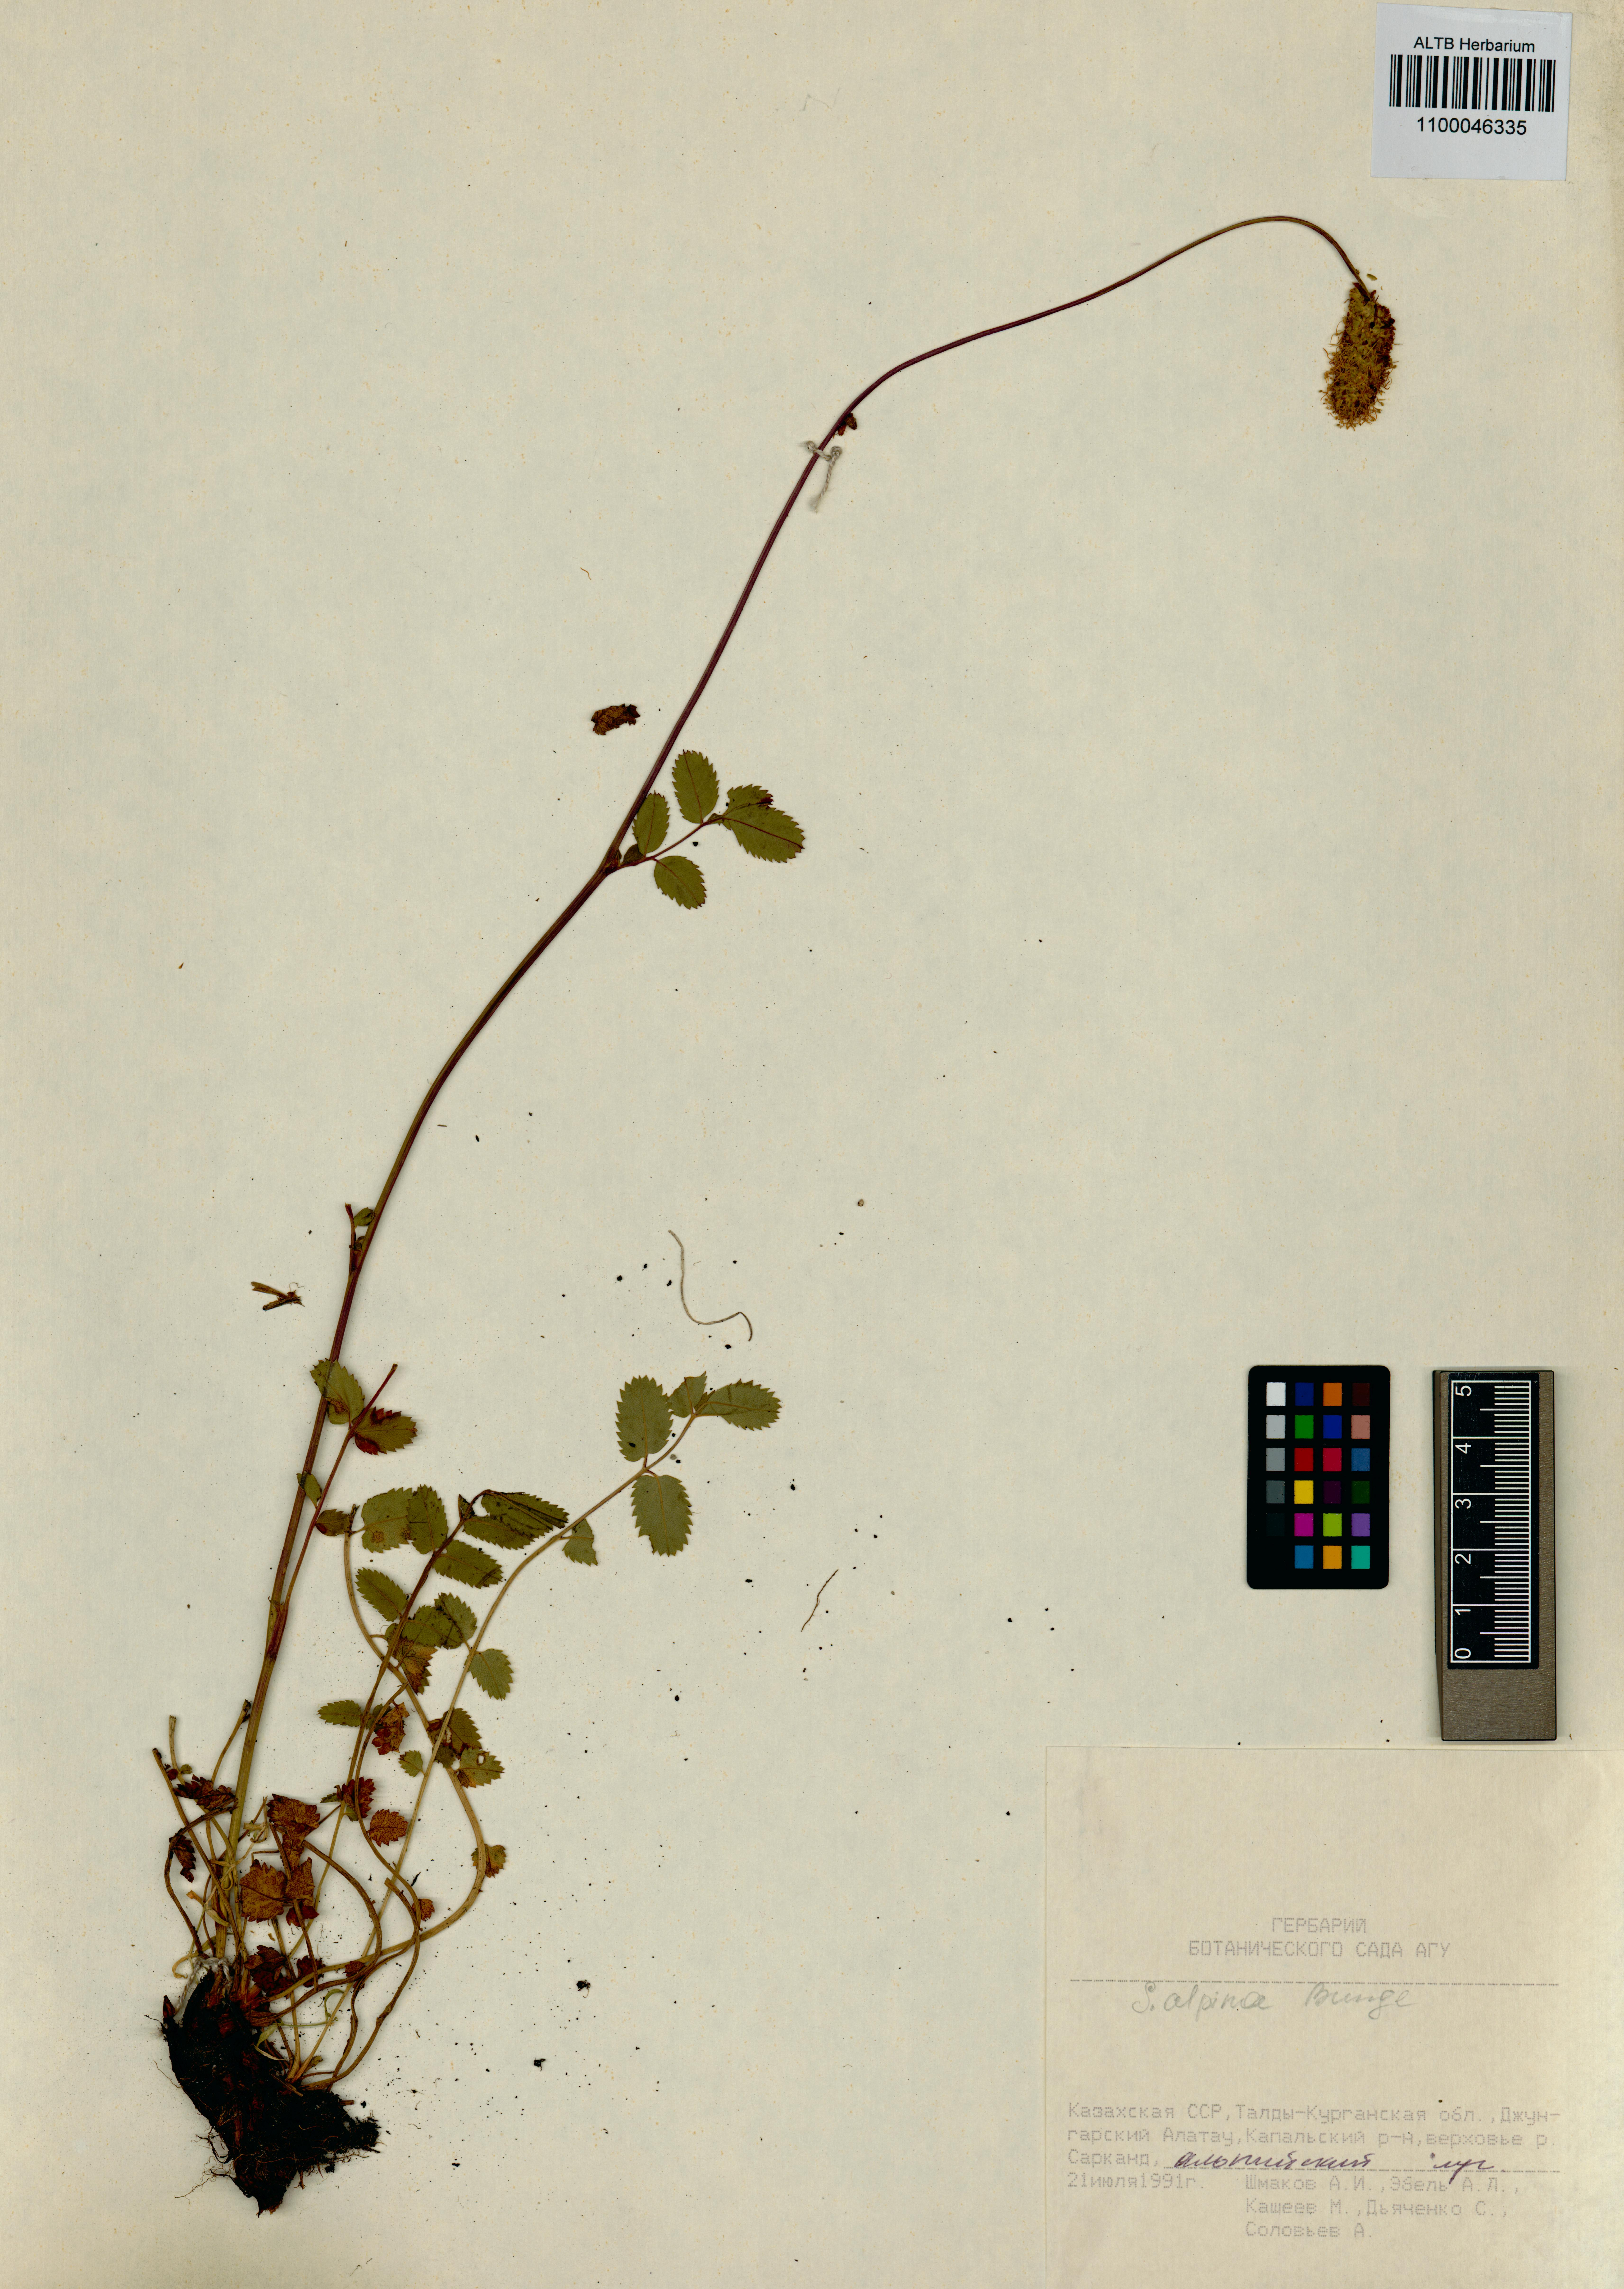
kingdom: Plantae
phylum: Tracheophyta
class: Magnoliopsida
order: Rosales
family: Rosaceae
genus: Sanguisorba
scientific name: Sanguisorba alpina
